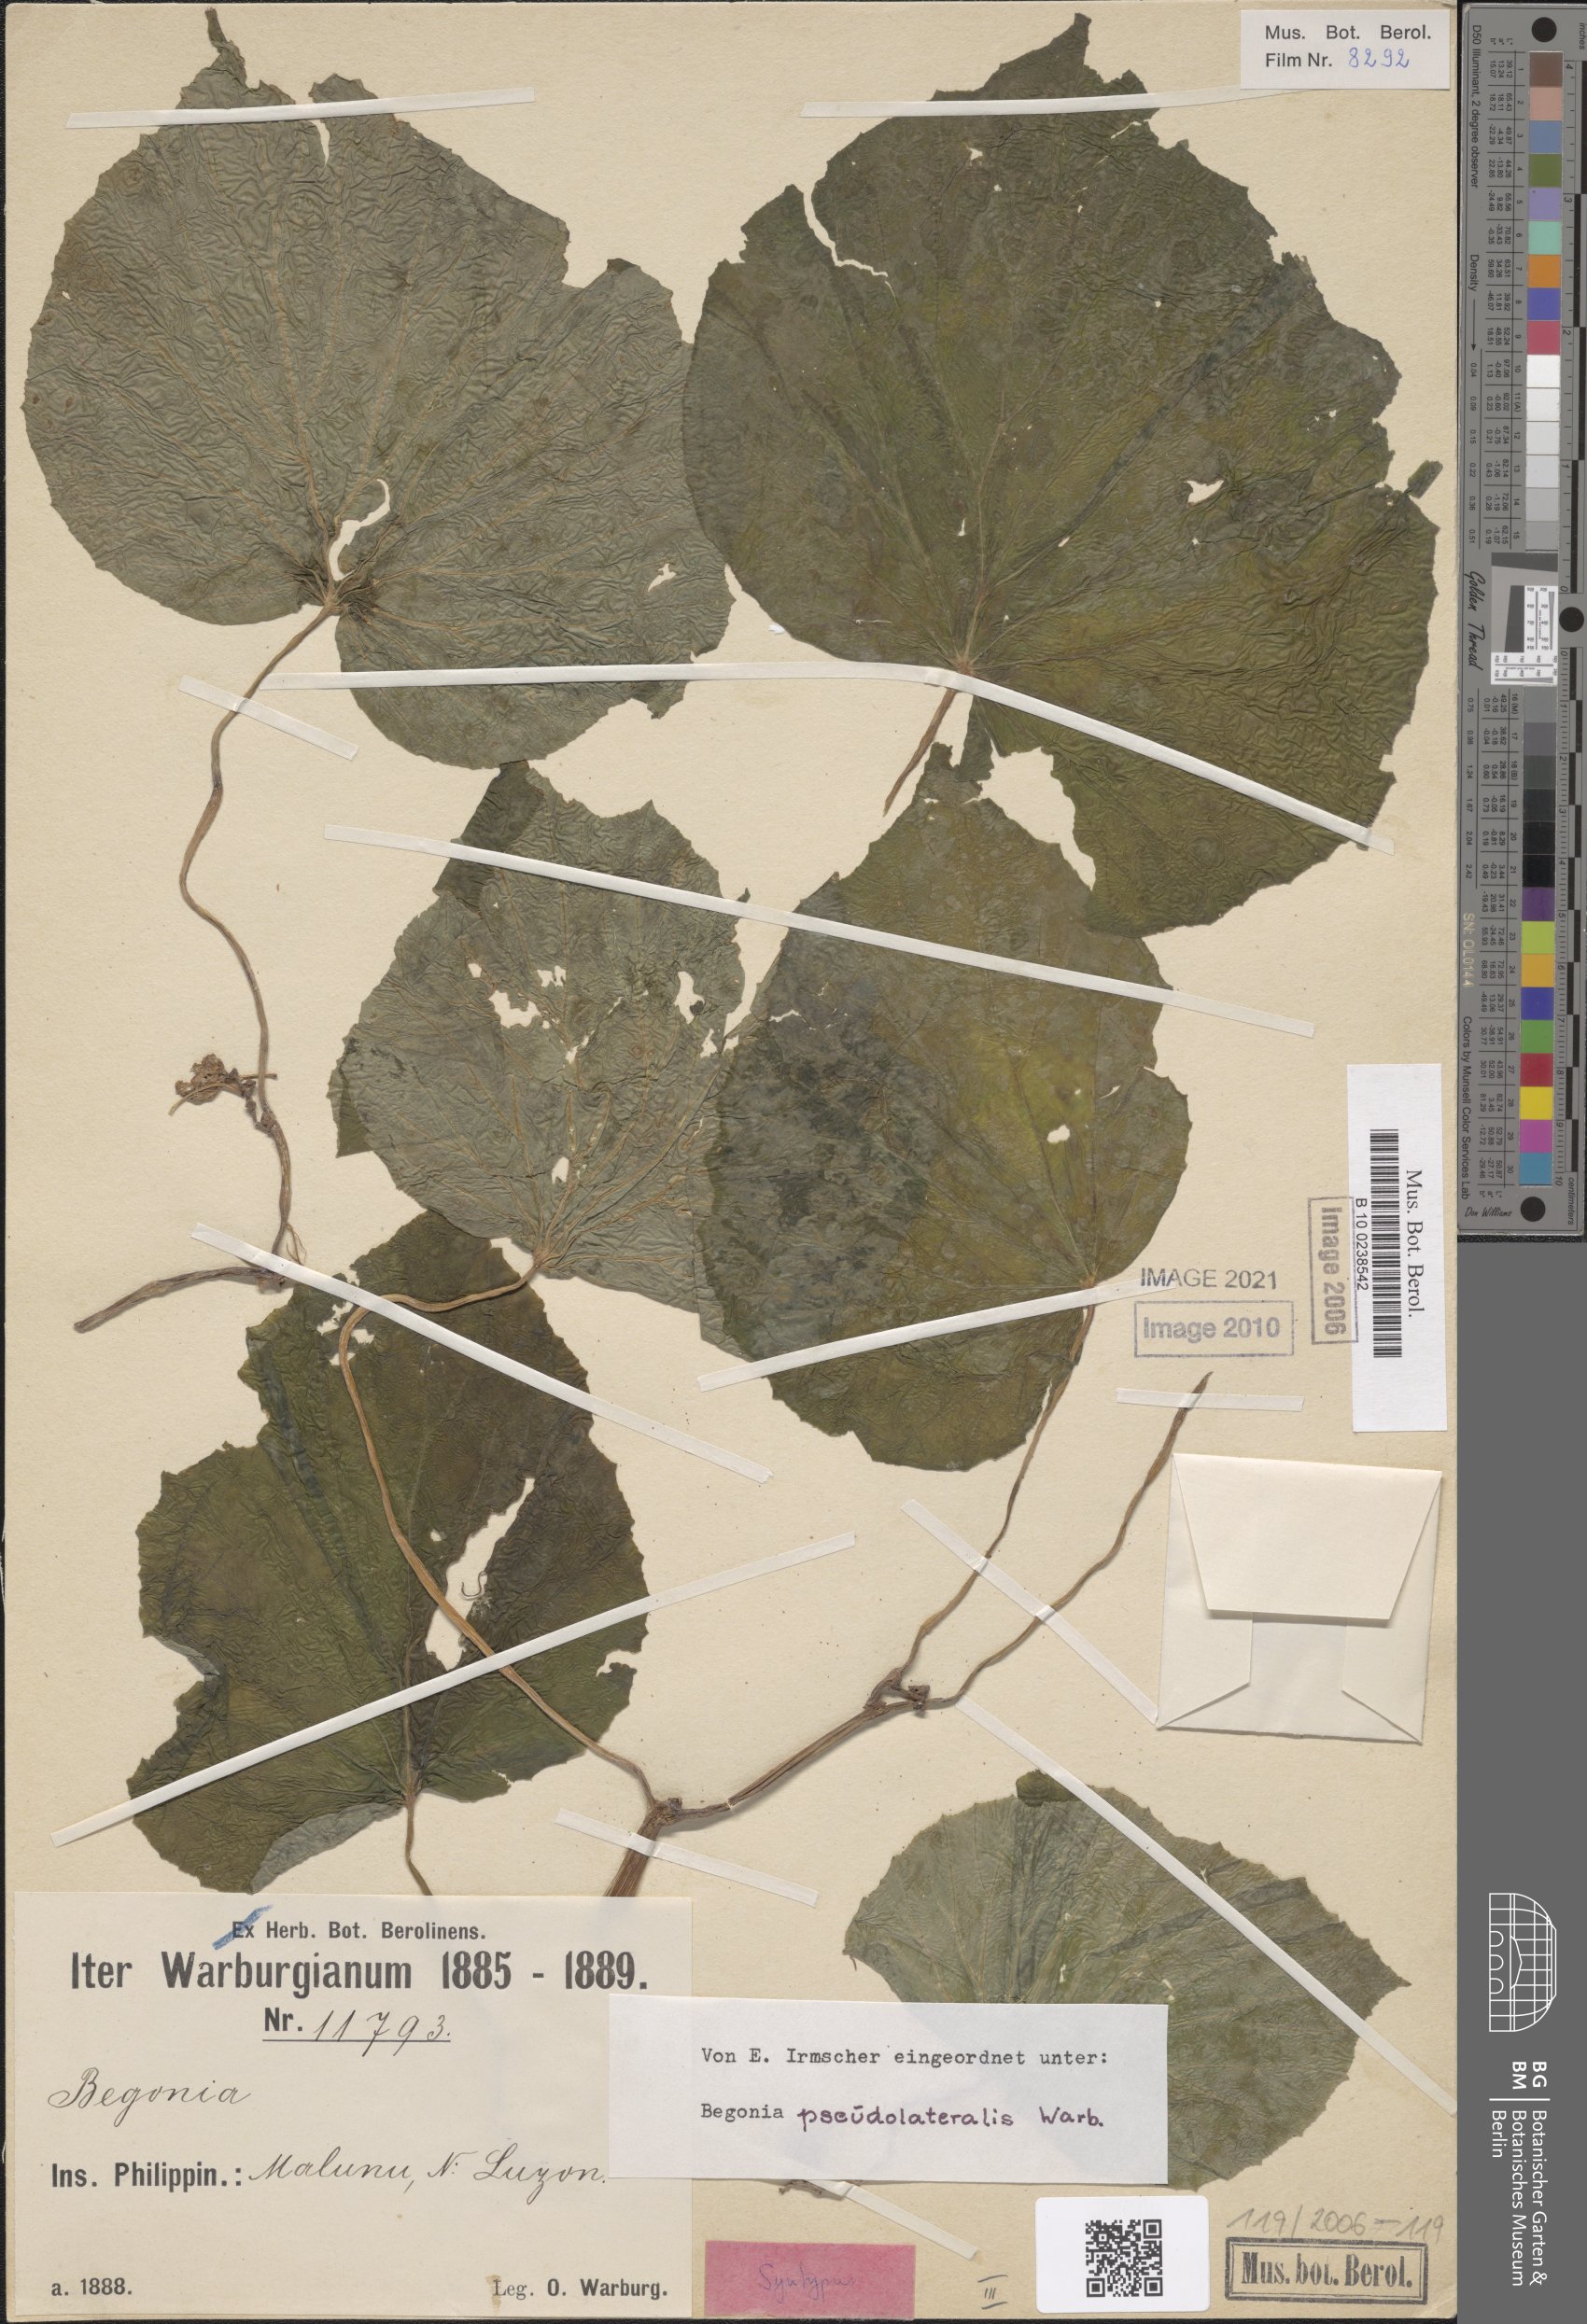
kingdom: Plantae
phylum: Tracheophyta
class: Magnoliopsida
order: Cucurbitales
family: Begoniaceae
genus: Begonia
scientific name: Begonia pseudolateralis
